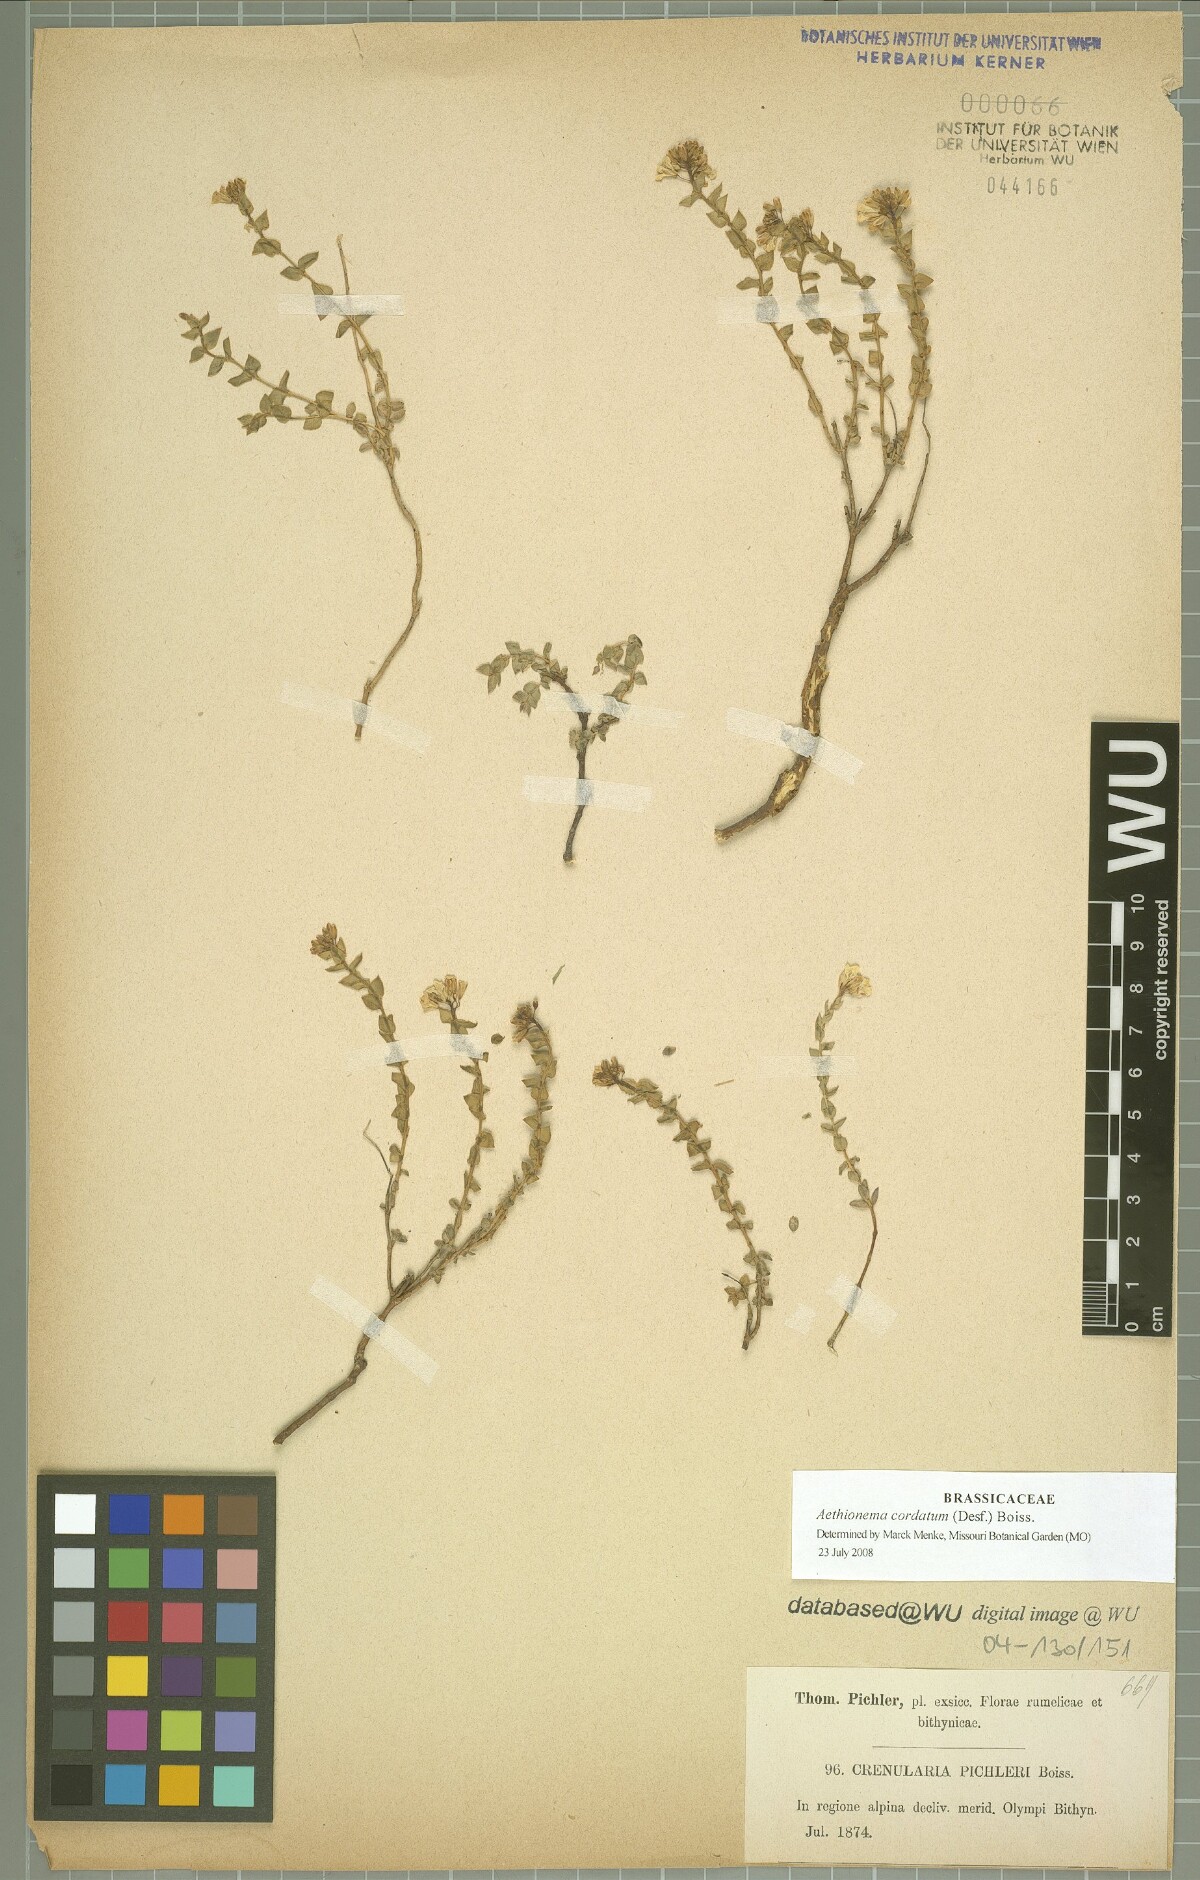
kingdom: Plantae
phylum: Tracheophyta
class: Magnoliopsida
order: Brassicales
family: Brassicaceae
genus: Aethionema
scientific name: Aethionema cordatum
